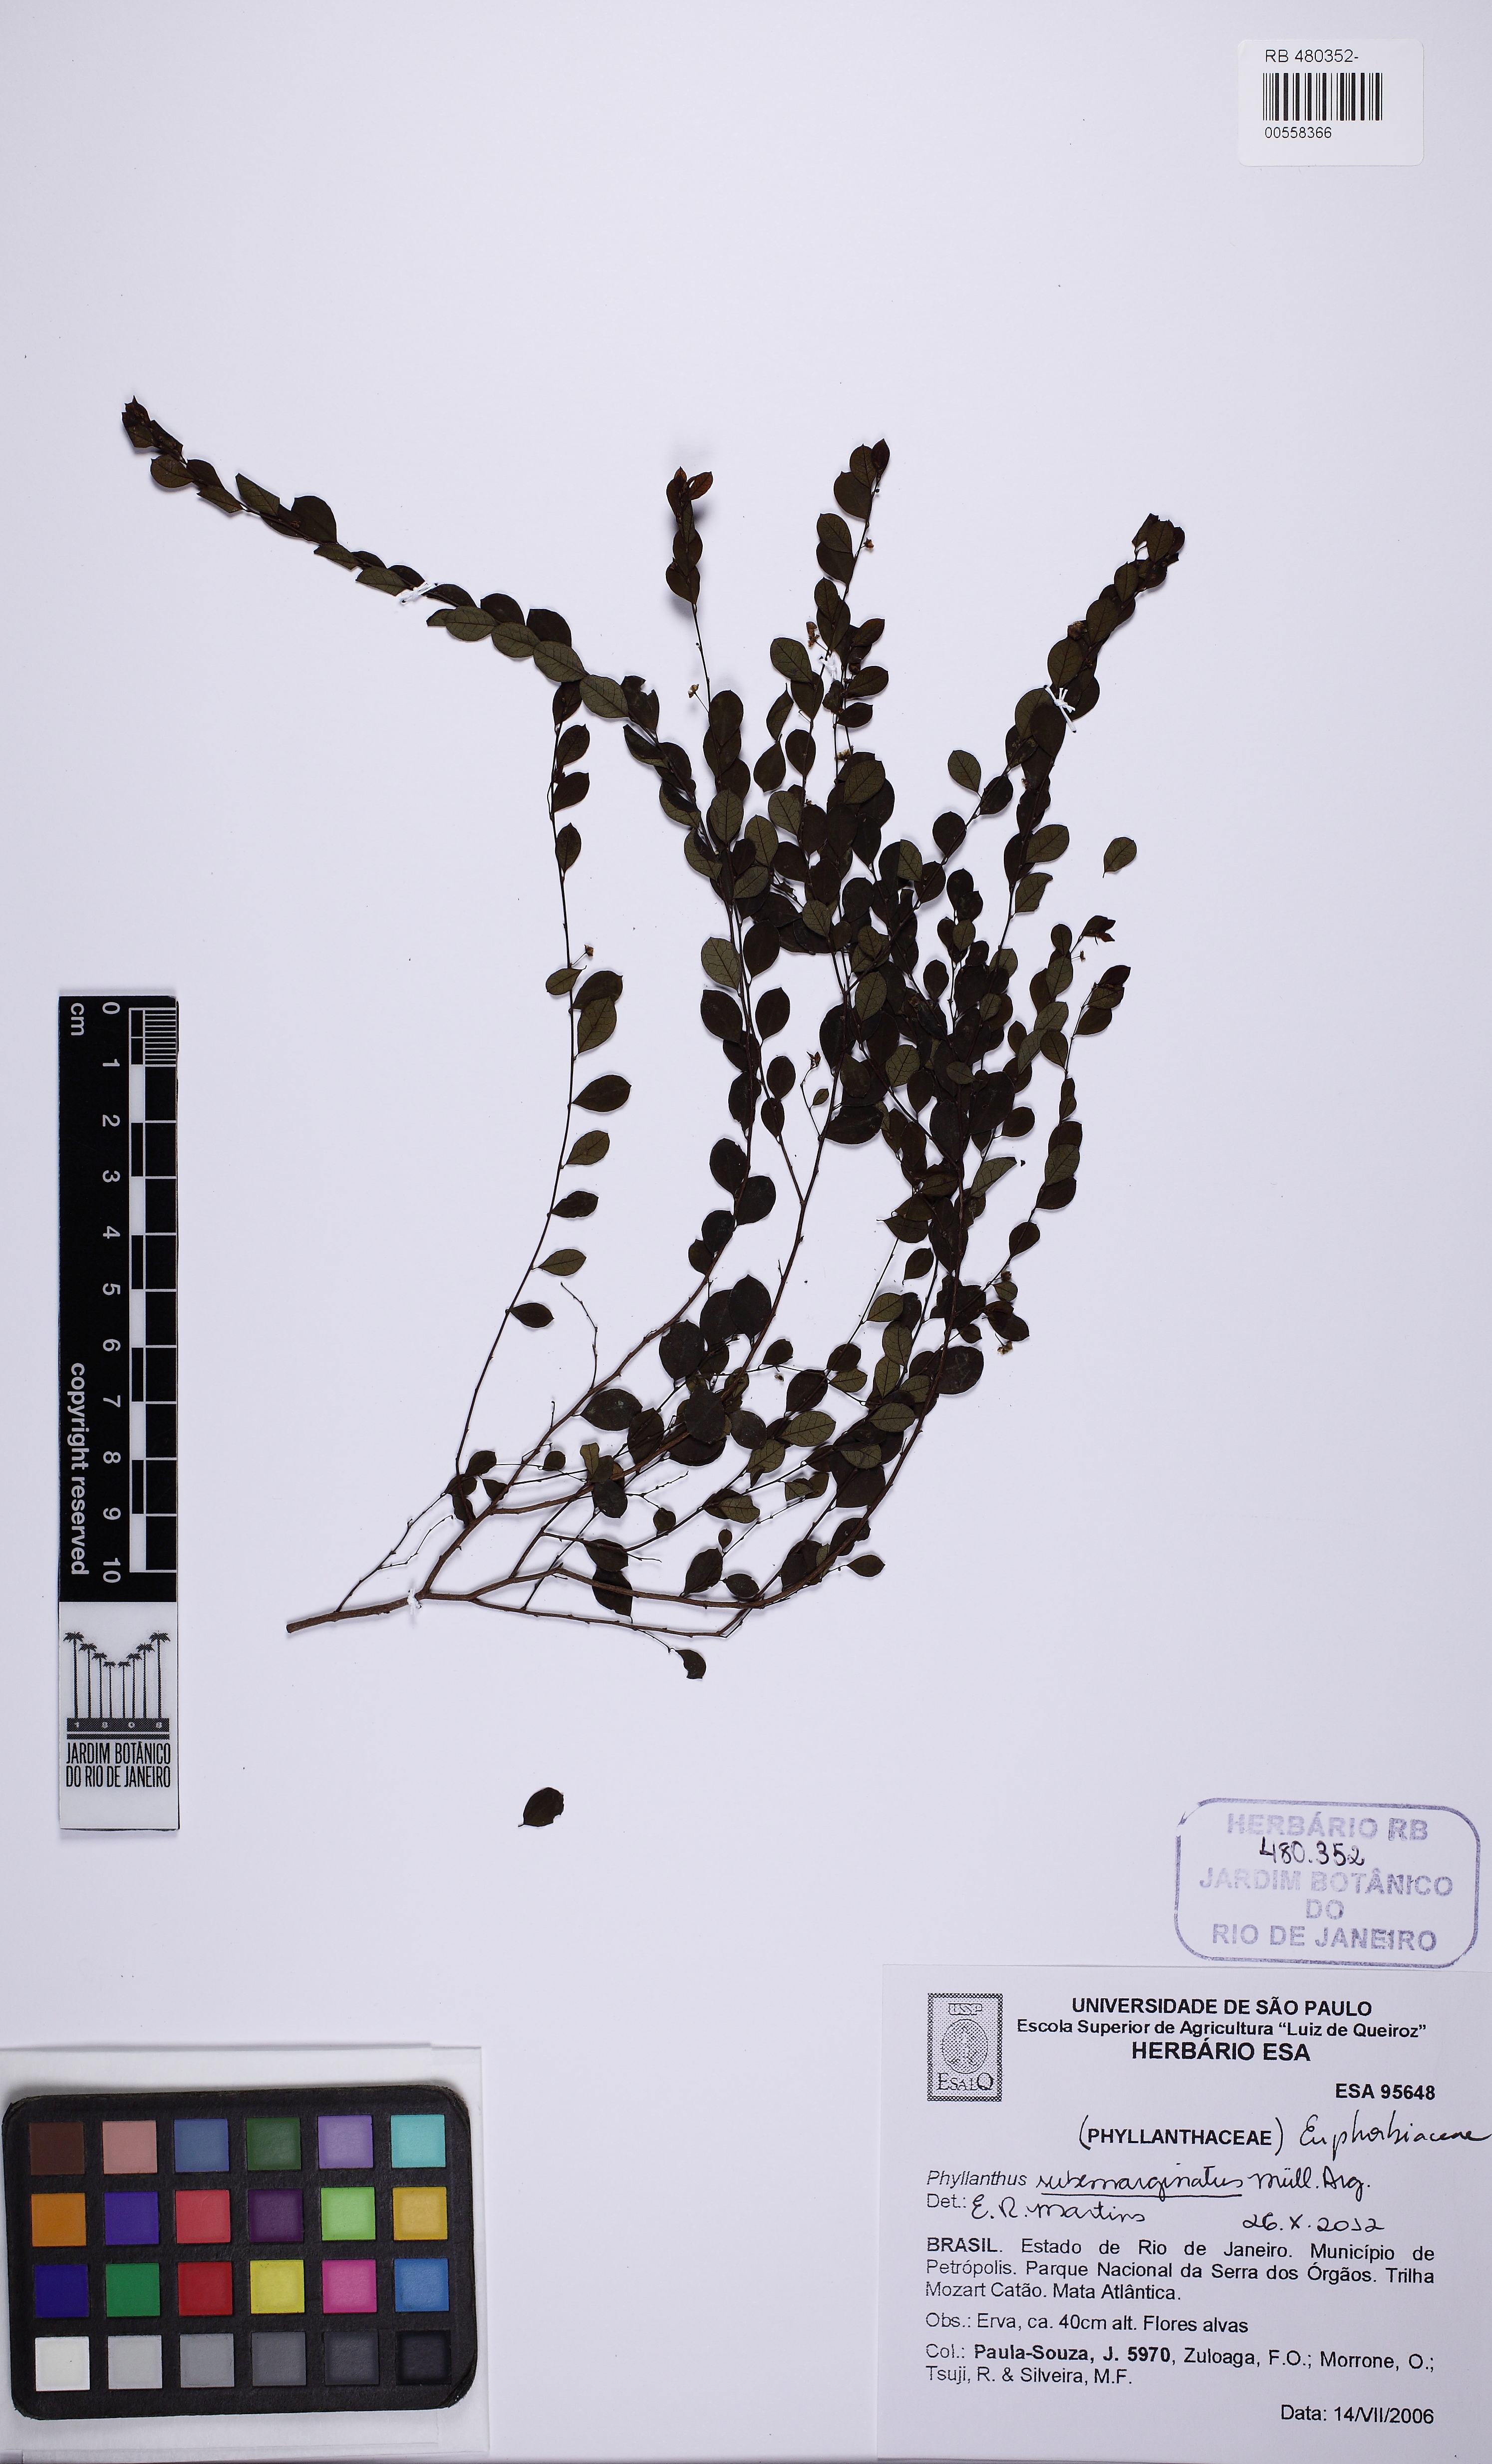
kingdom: Plantae
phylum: Tracheophyta
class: Magnoliopsida
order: Malpighiales
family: Phyllanthaceae
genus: Phyllanthus
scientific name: Phyllanthus subemarginatus
